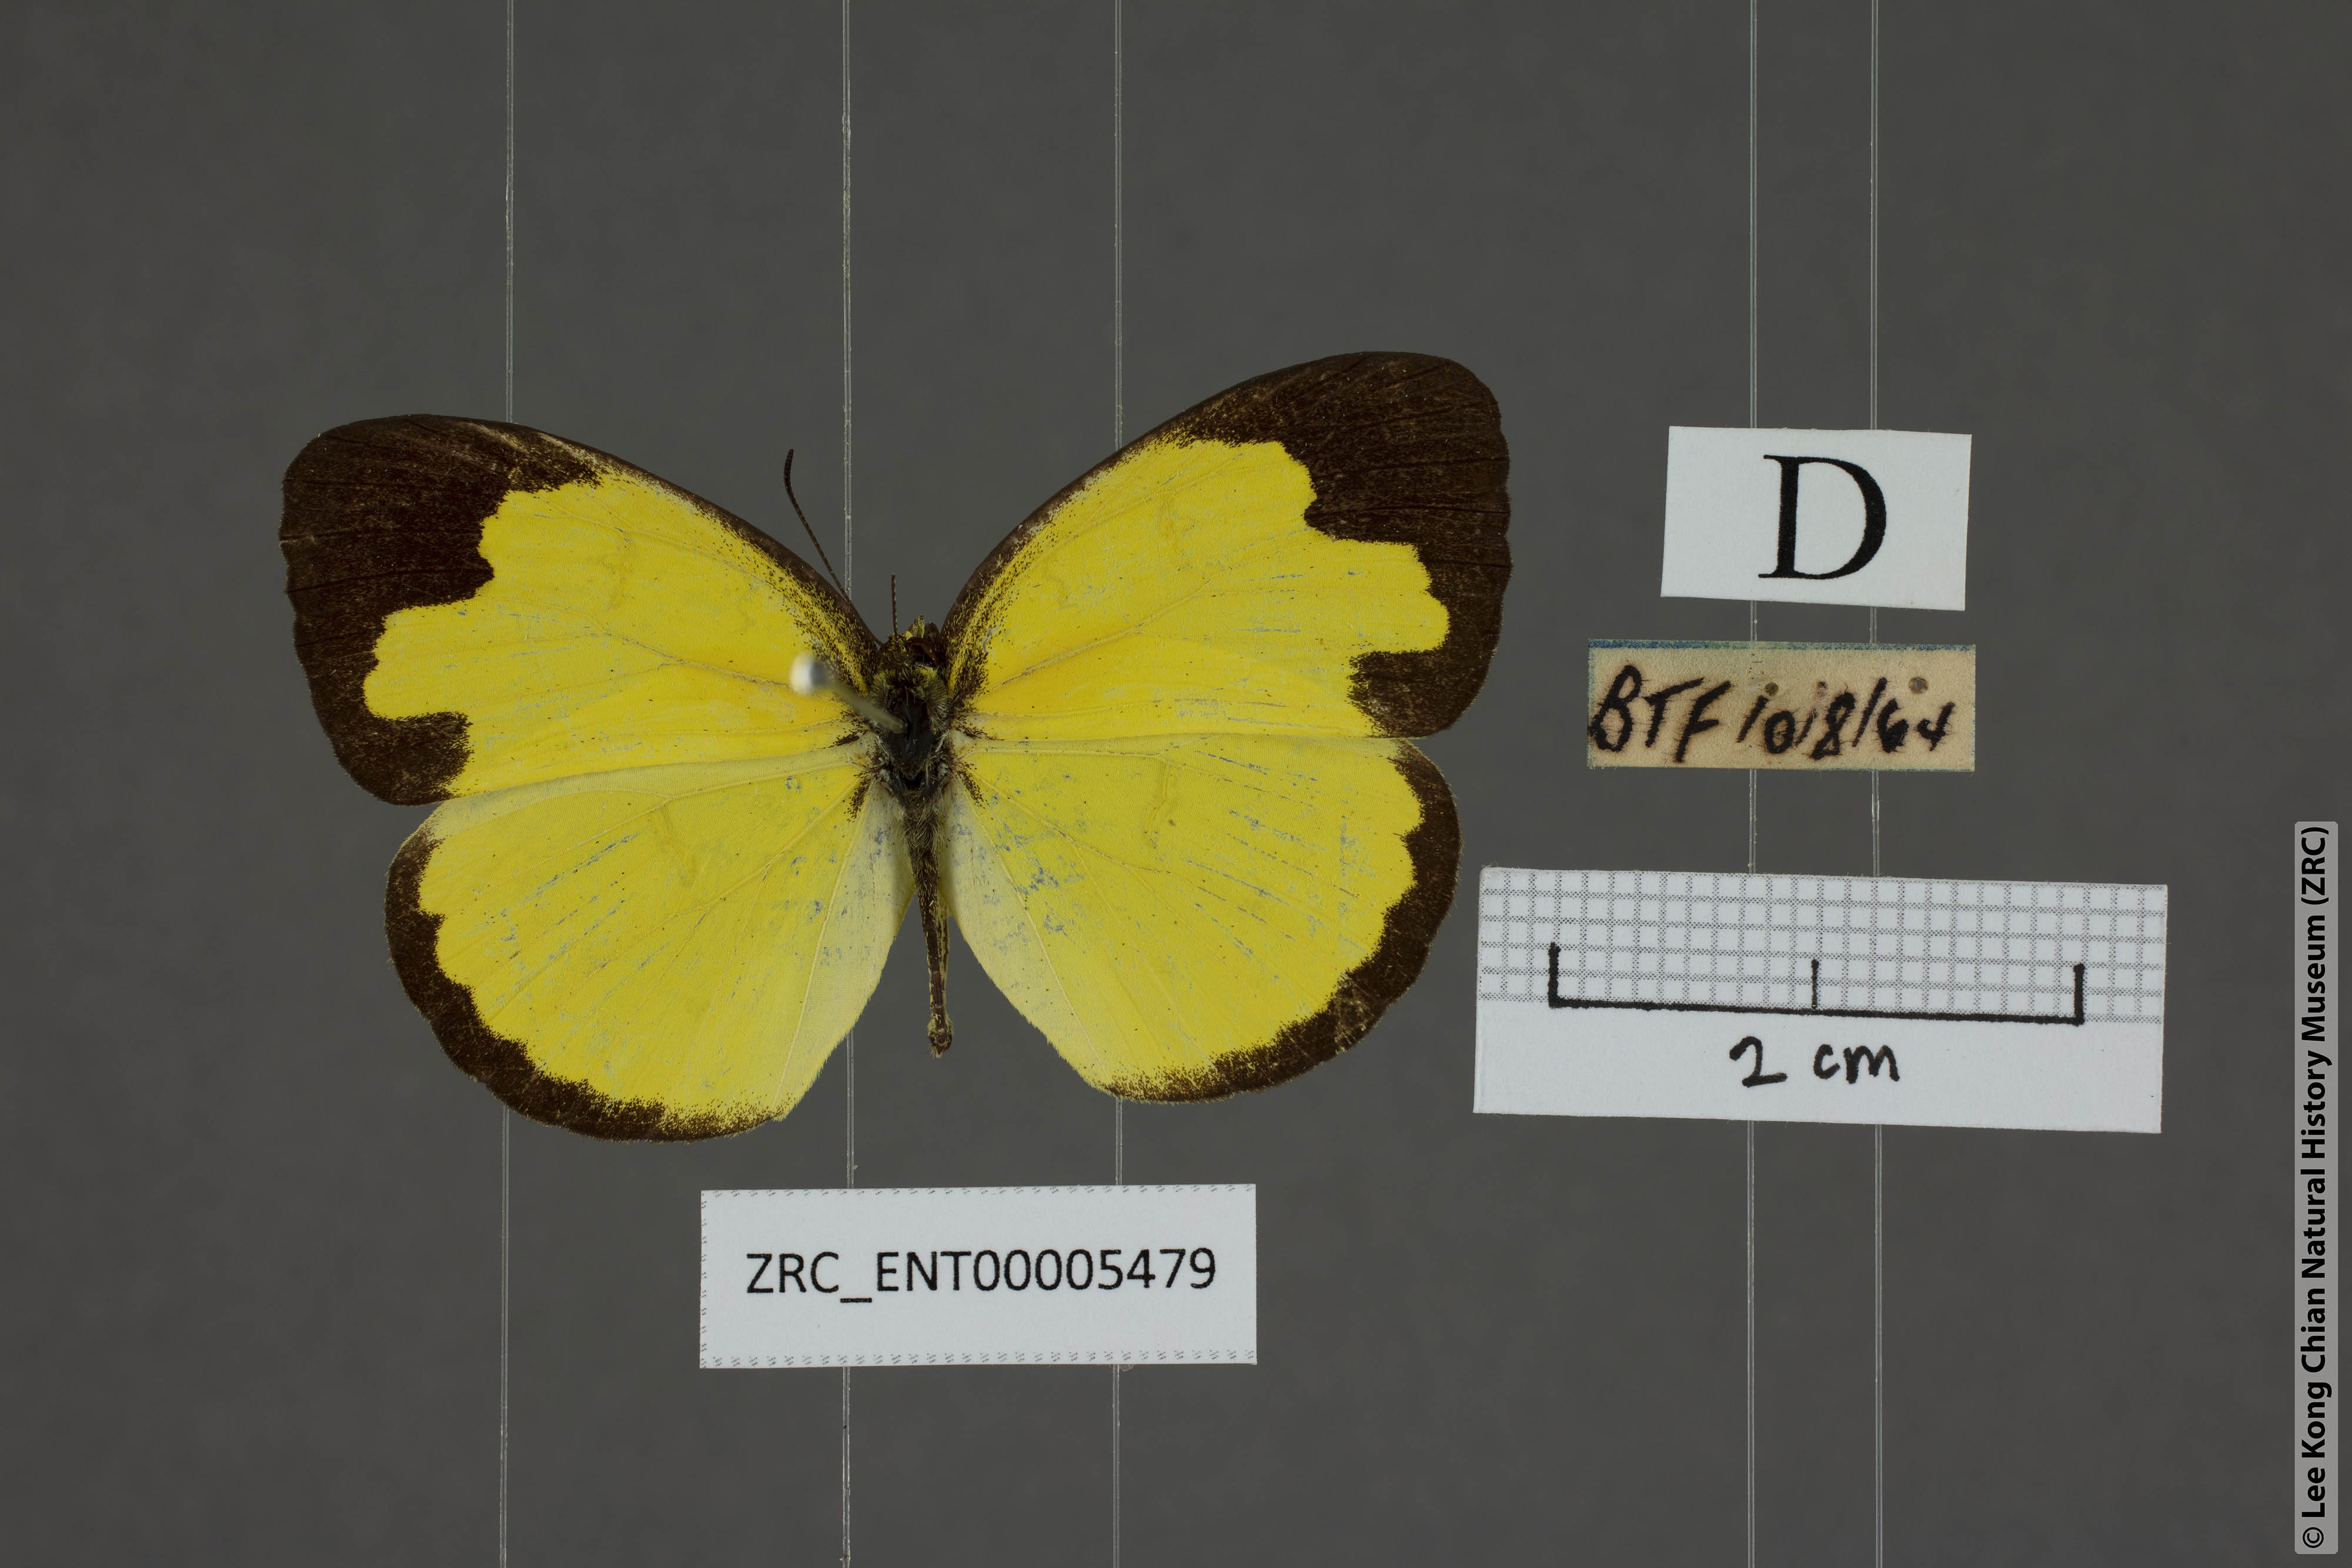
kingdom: Animalia
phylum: Arthropoda
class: Insecta
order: Lepidoptera
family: Pieridae
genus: Eurema
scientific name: Eurema simulatrix
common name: Hill grass yellow
